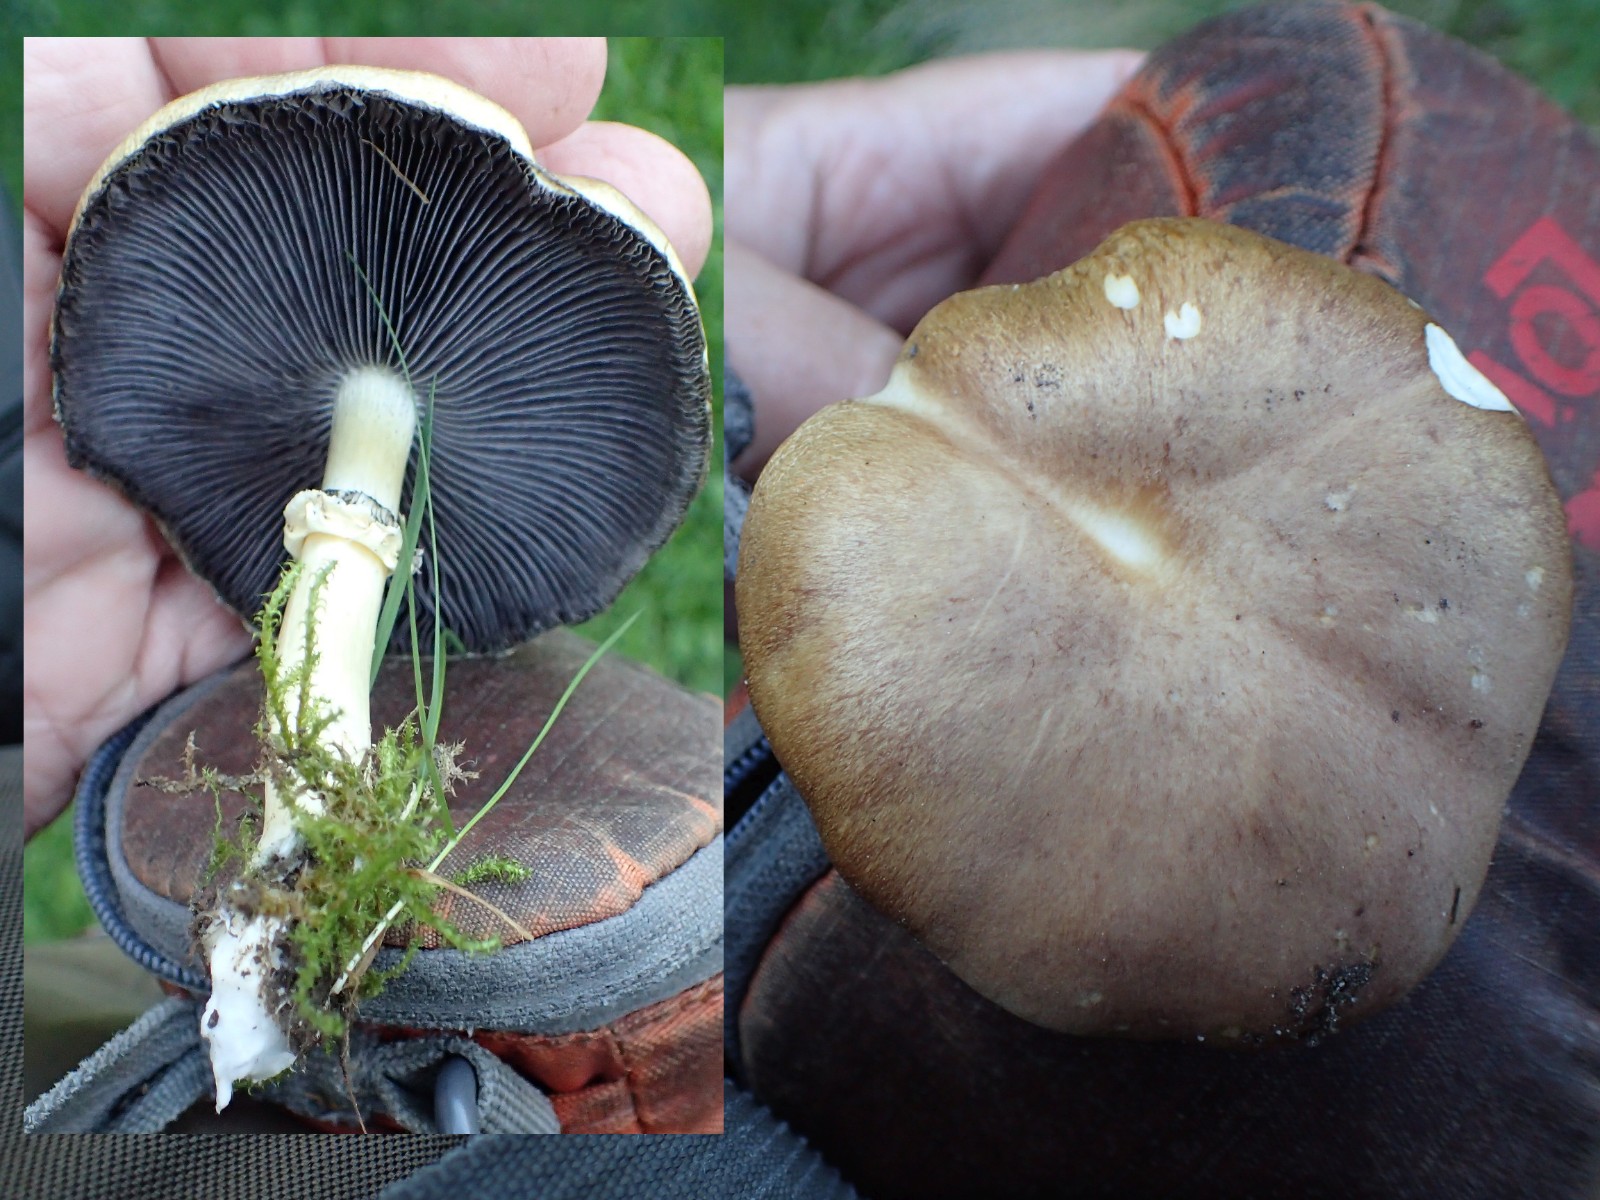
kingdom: Fungi
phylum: Basidiomycota
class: Agaricomycetes
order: Agaricales
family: Strophariaceae
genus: Stropharia
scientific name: Stropharia rugosoannulata
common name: rødbrun bredblad
